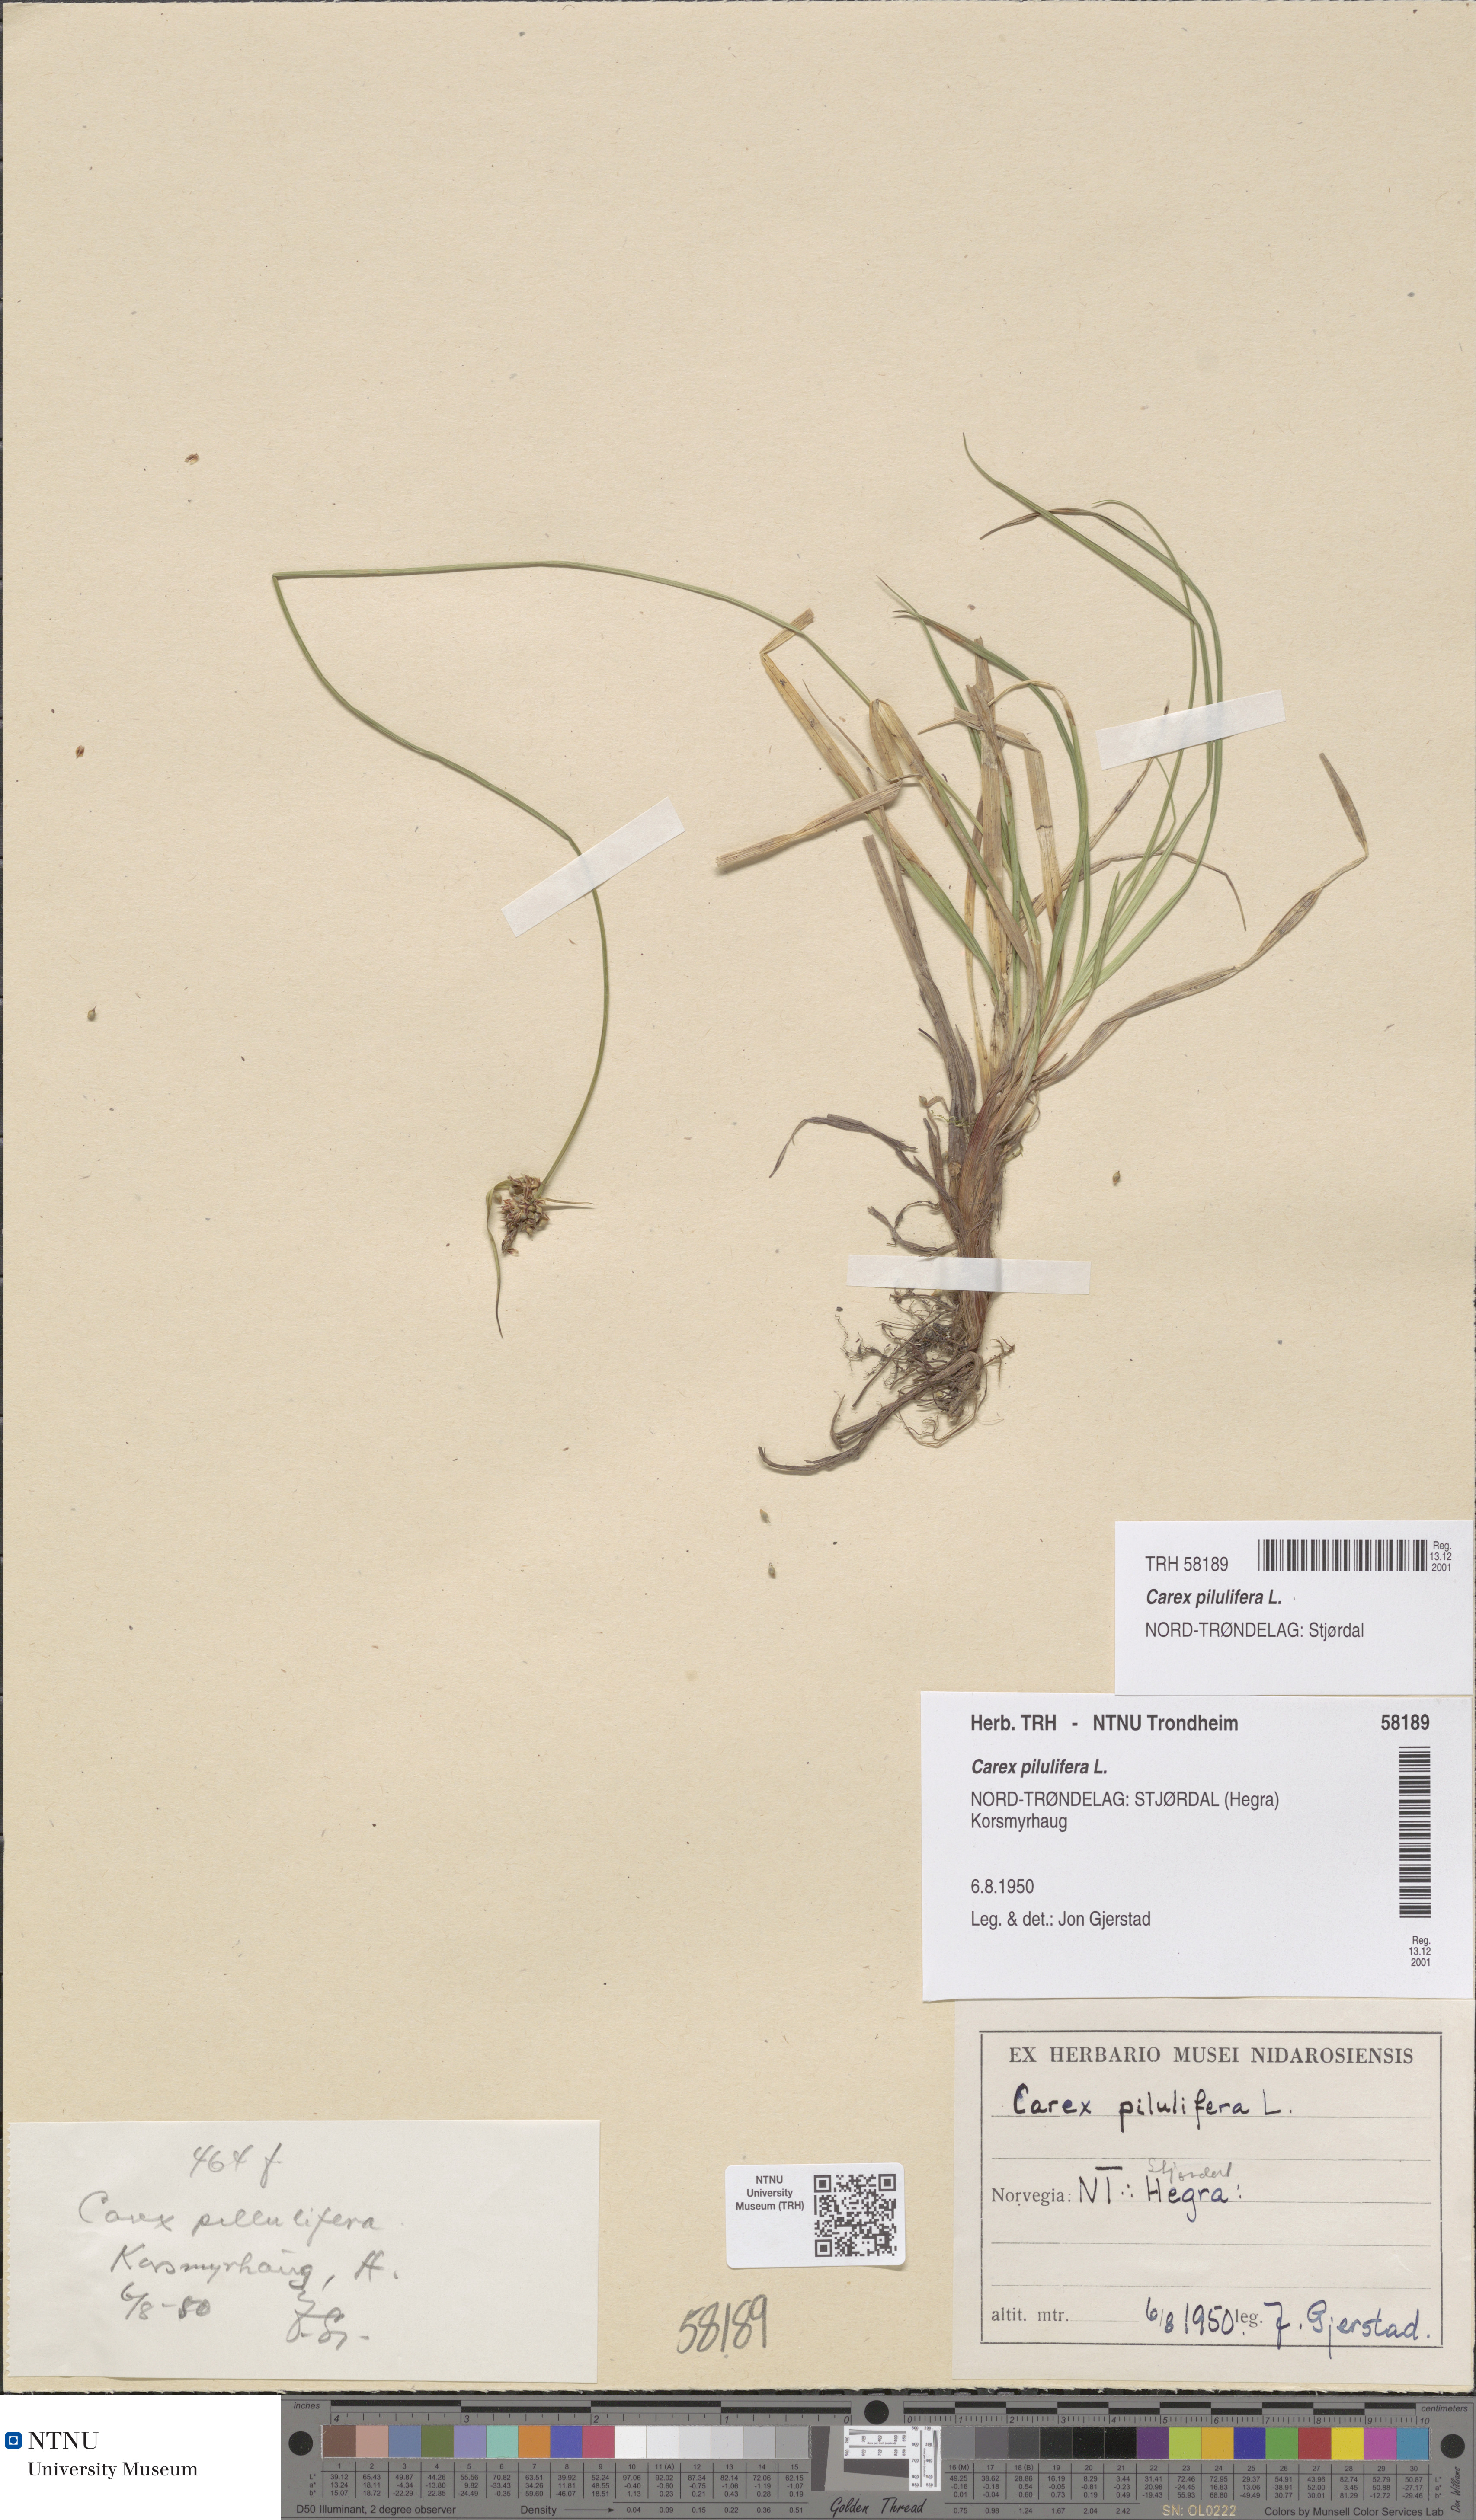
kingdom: Plantae
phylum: Tracheophyta
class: Liliopsida
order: Poales
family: Cyperaceae
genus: Carex
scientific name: Carex pilulifera
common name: Pill sedge
